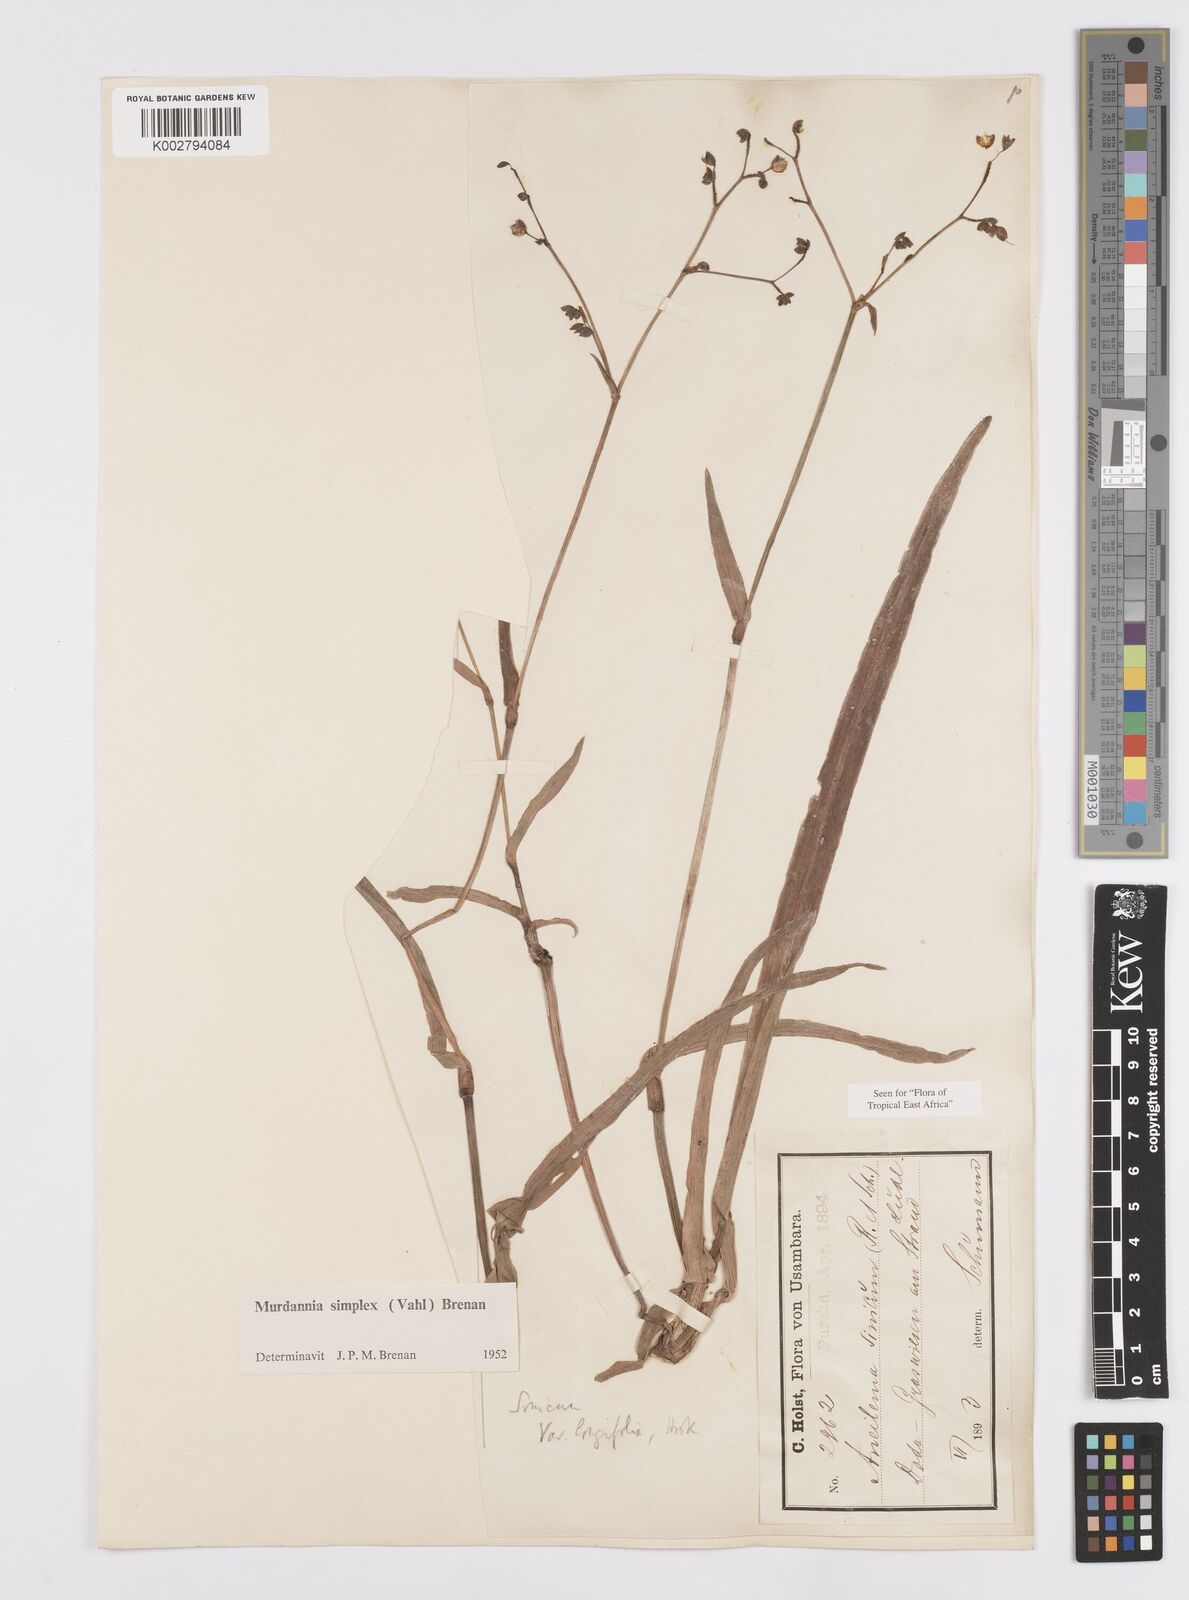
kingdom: Plantae
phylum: Tracheophyta
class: Liliopsida
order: Commelinales
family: Commelinaceae
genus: Murdannia
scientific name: Murdannia simplex
